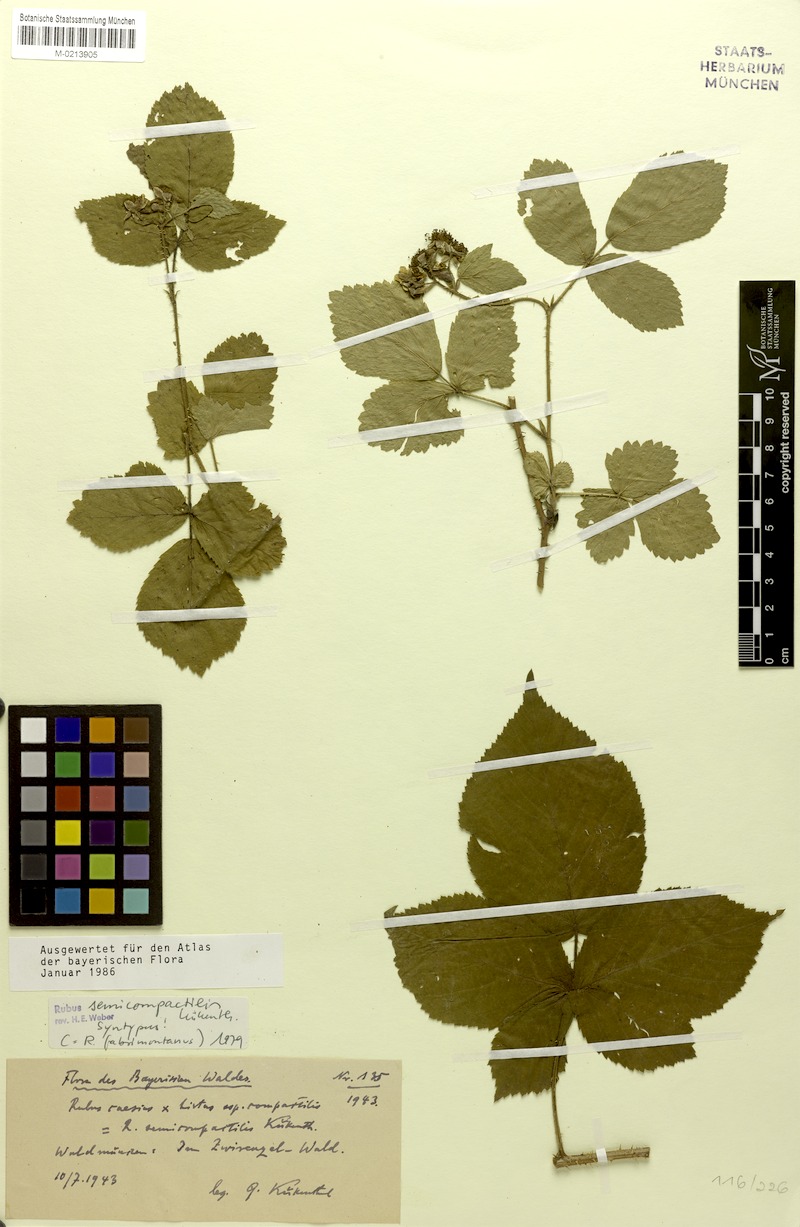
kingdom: Plantae
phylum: Tracheophyta
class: Magnoliopsida
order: Rosales
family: Rosaceae
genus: Rubus
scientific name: Rubus fabrimontanus
